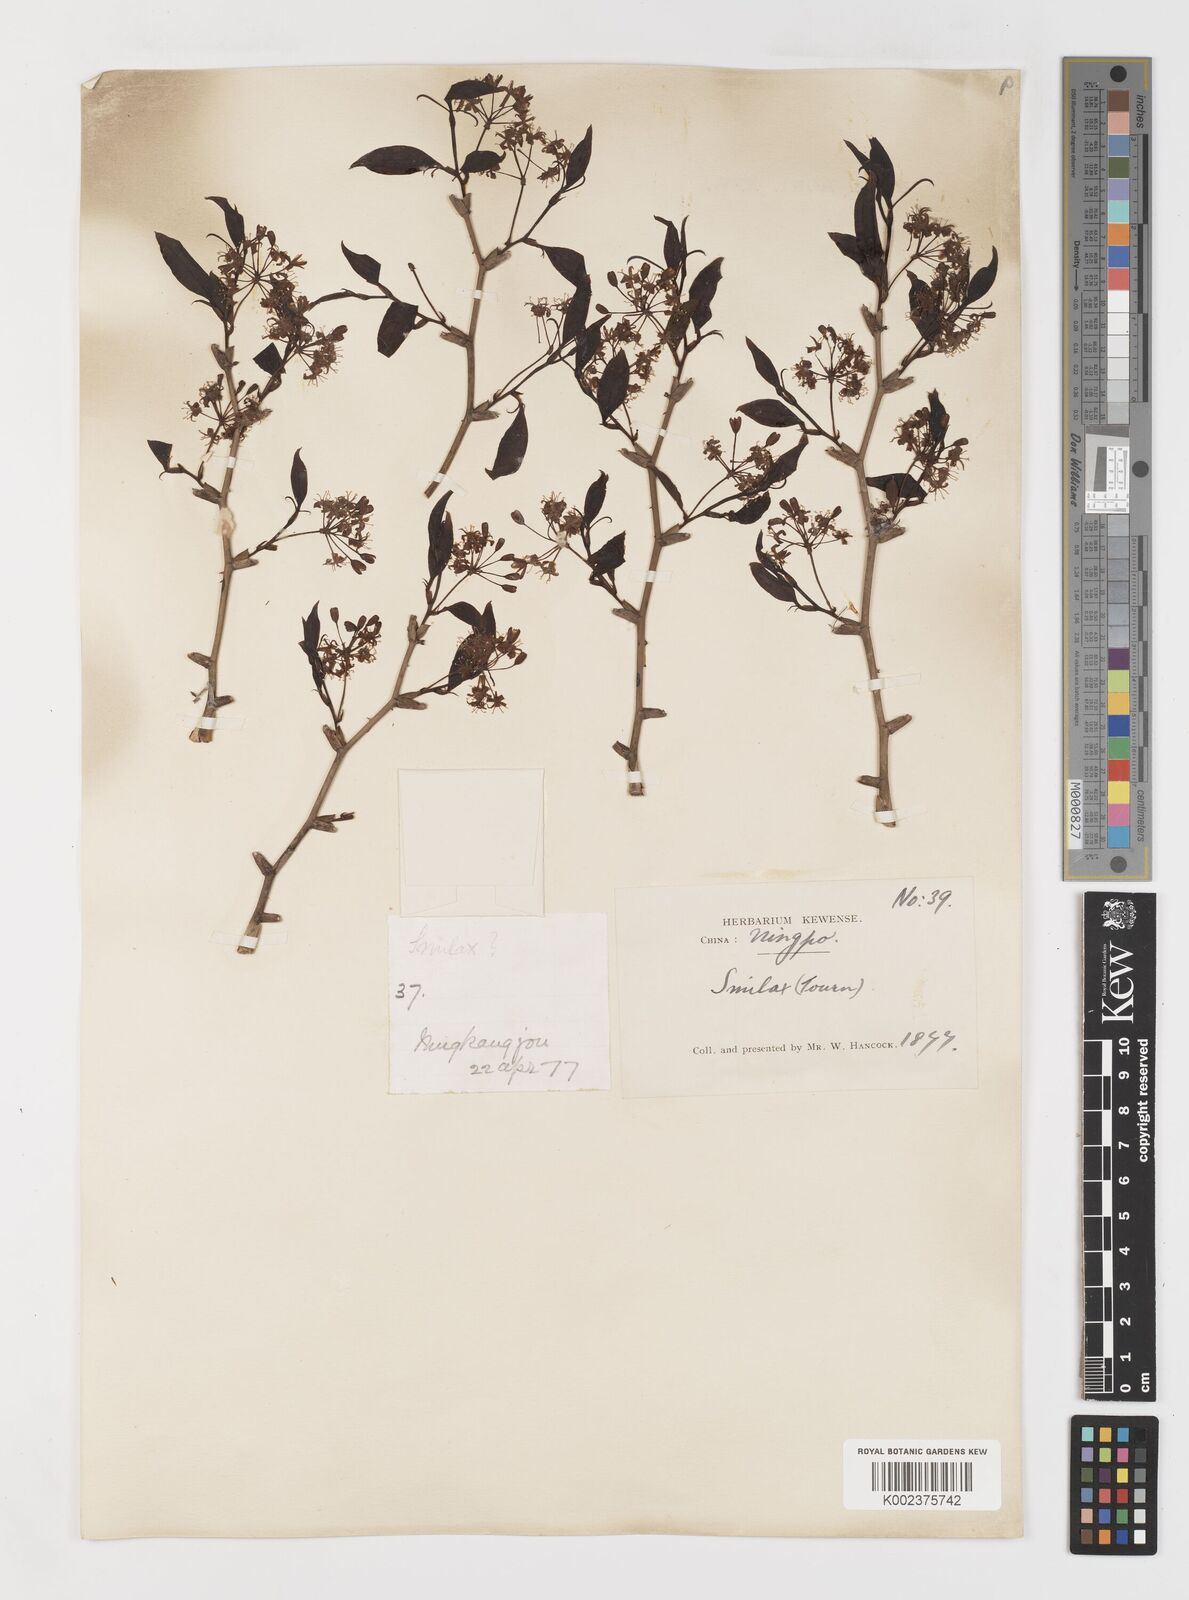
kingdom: Plantae
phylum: Tracheophyta
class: Liliopsida
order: Liliales
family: Smilacaceae
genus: Smilax
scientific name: Smilax china
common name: Chinaroot
